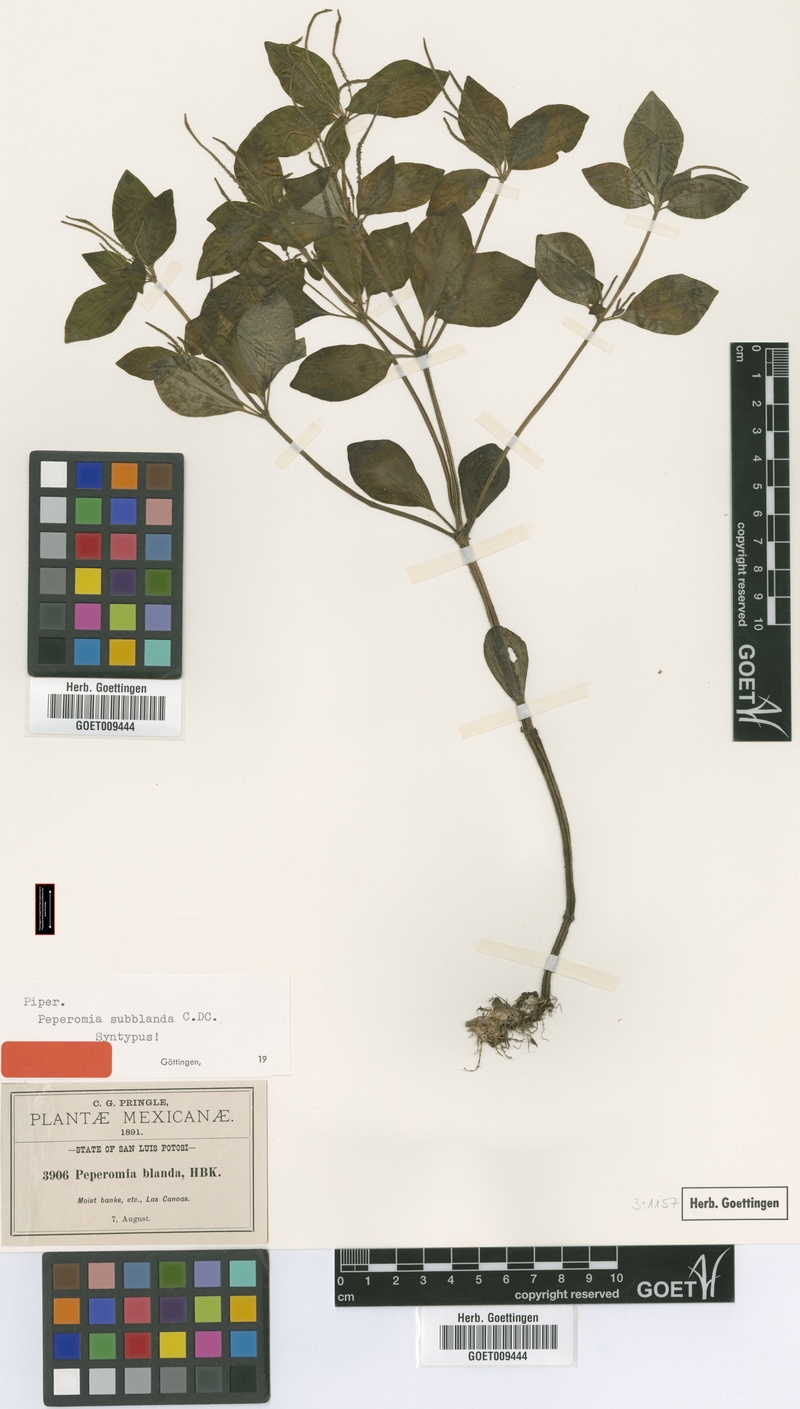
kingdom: Plantae
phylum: Tracheophyta
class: Magnoliopsida
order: Piperales
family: Piperaceae
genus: Peperomia
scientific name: Peperomia subblanda
